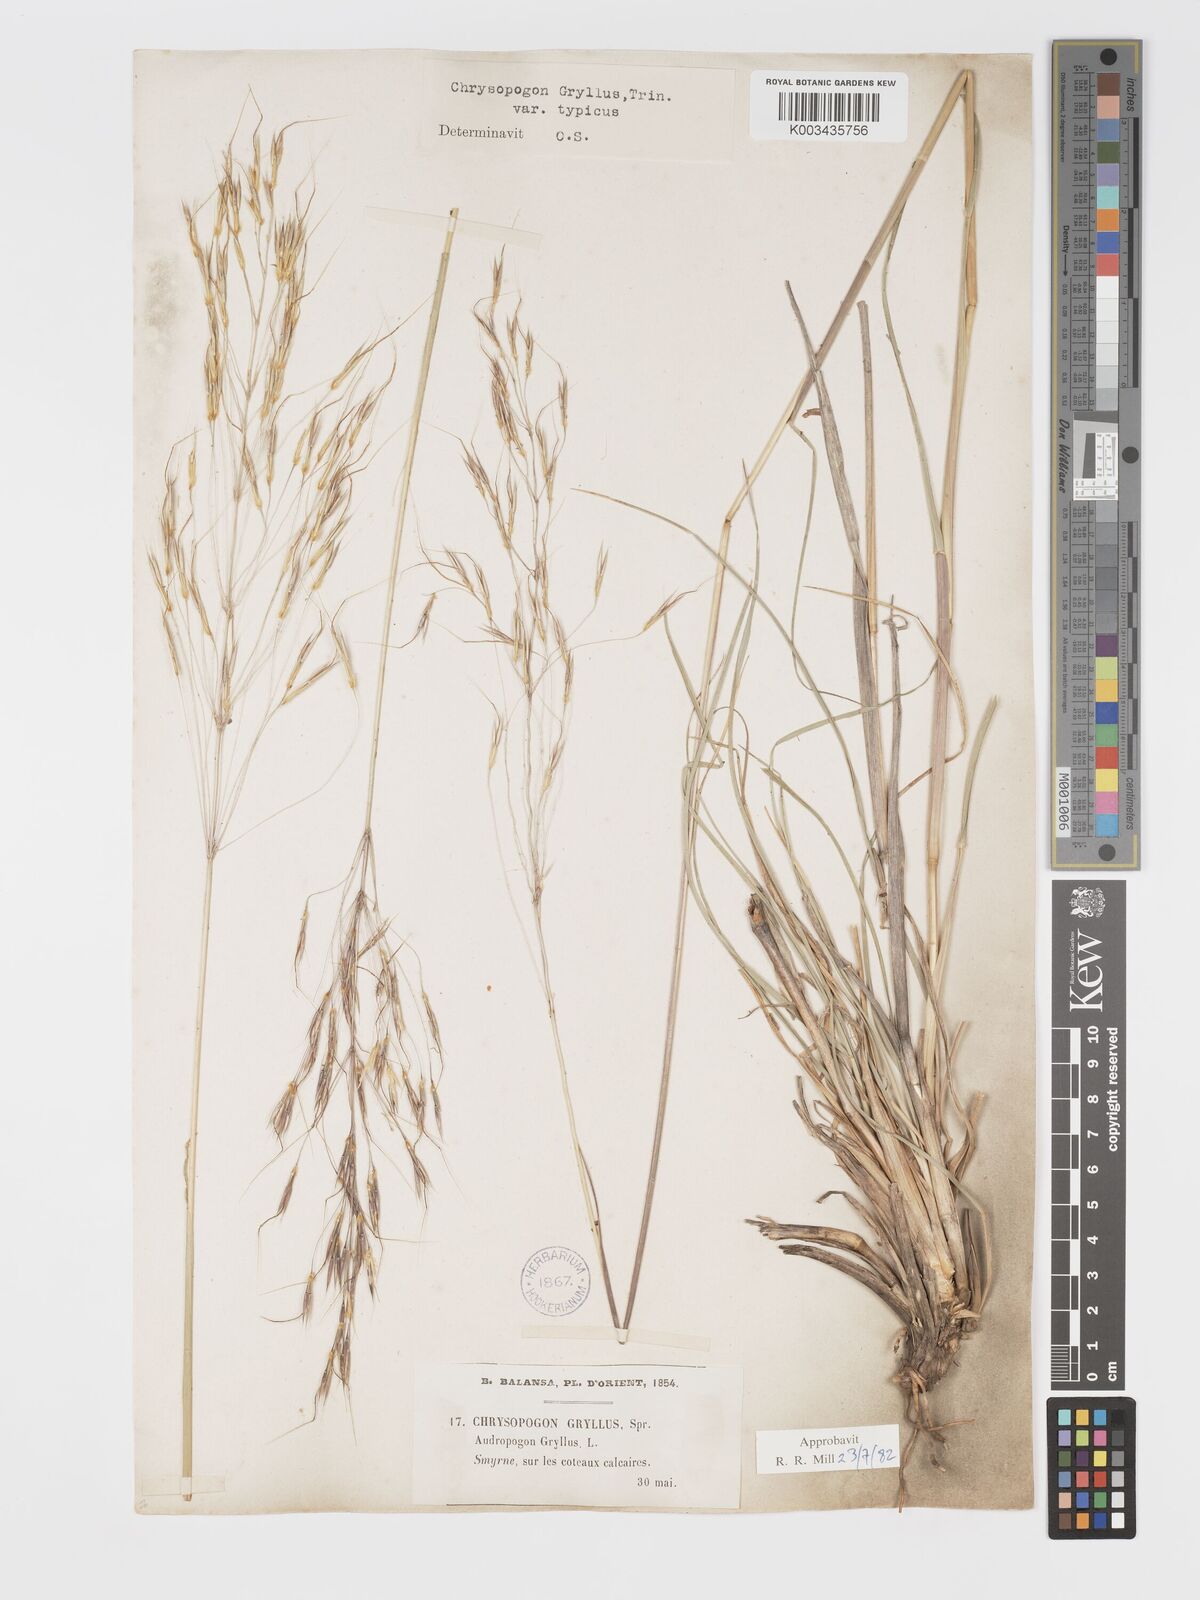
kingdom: Plantae
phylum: Tracheophyta
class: Liliopsida
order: Poales
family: Poaceae
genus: Chrysopogon
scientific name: Chrysopogon gryllus
